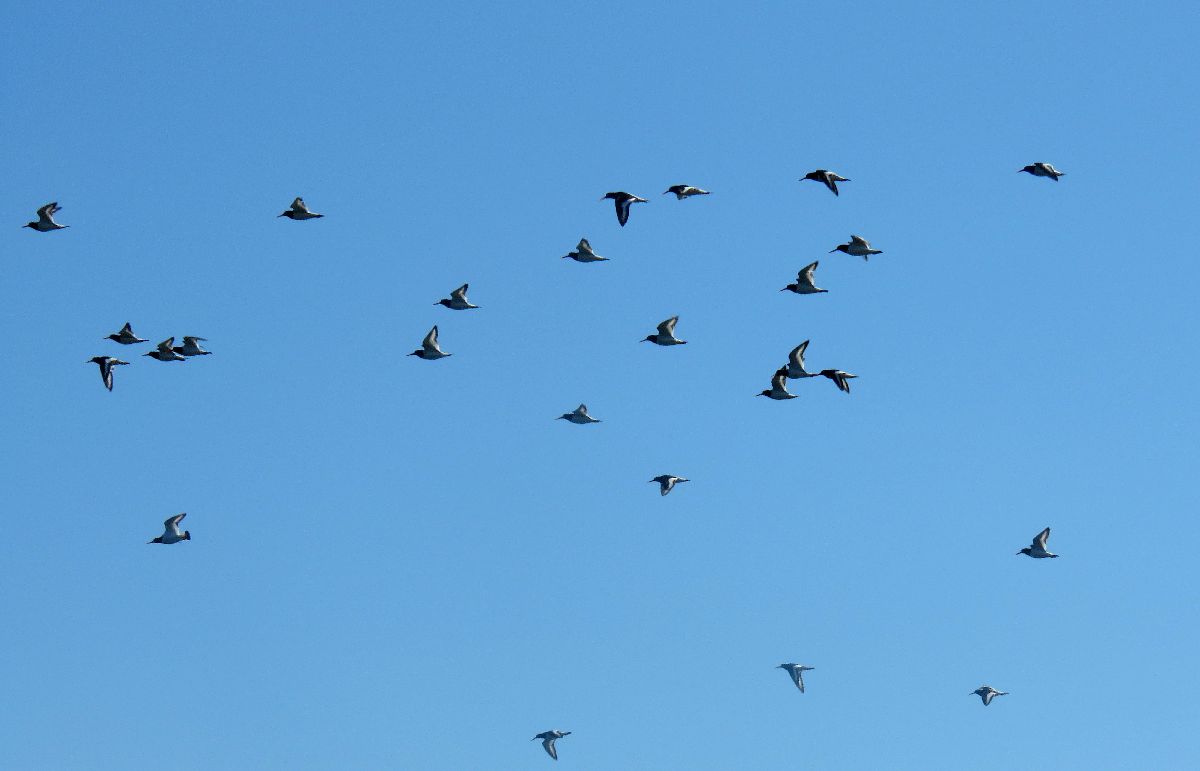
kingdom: Animalia
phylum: Chordata
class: Aves
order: Charadriiformes
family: Haematopodidae
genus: Haematopus
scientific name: Haematopus ostralegus
